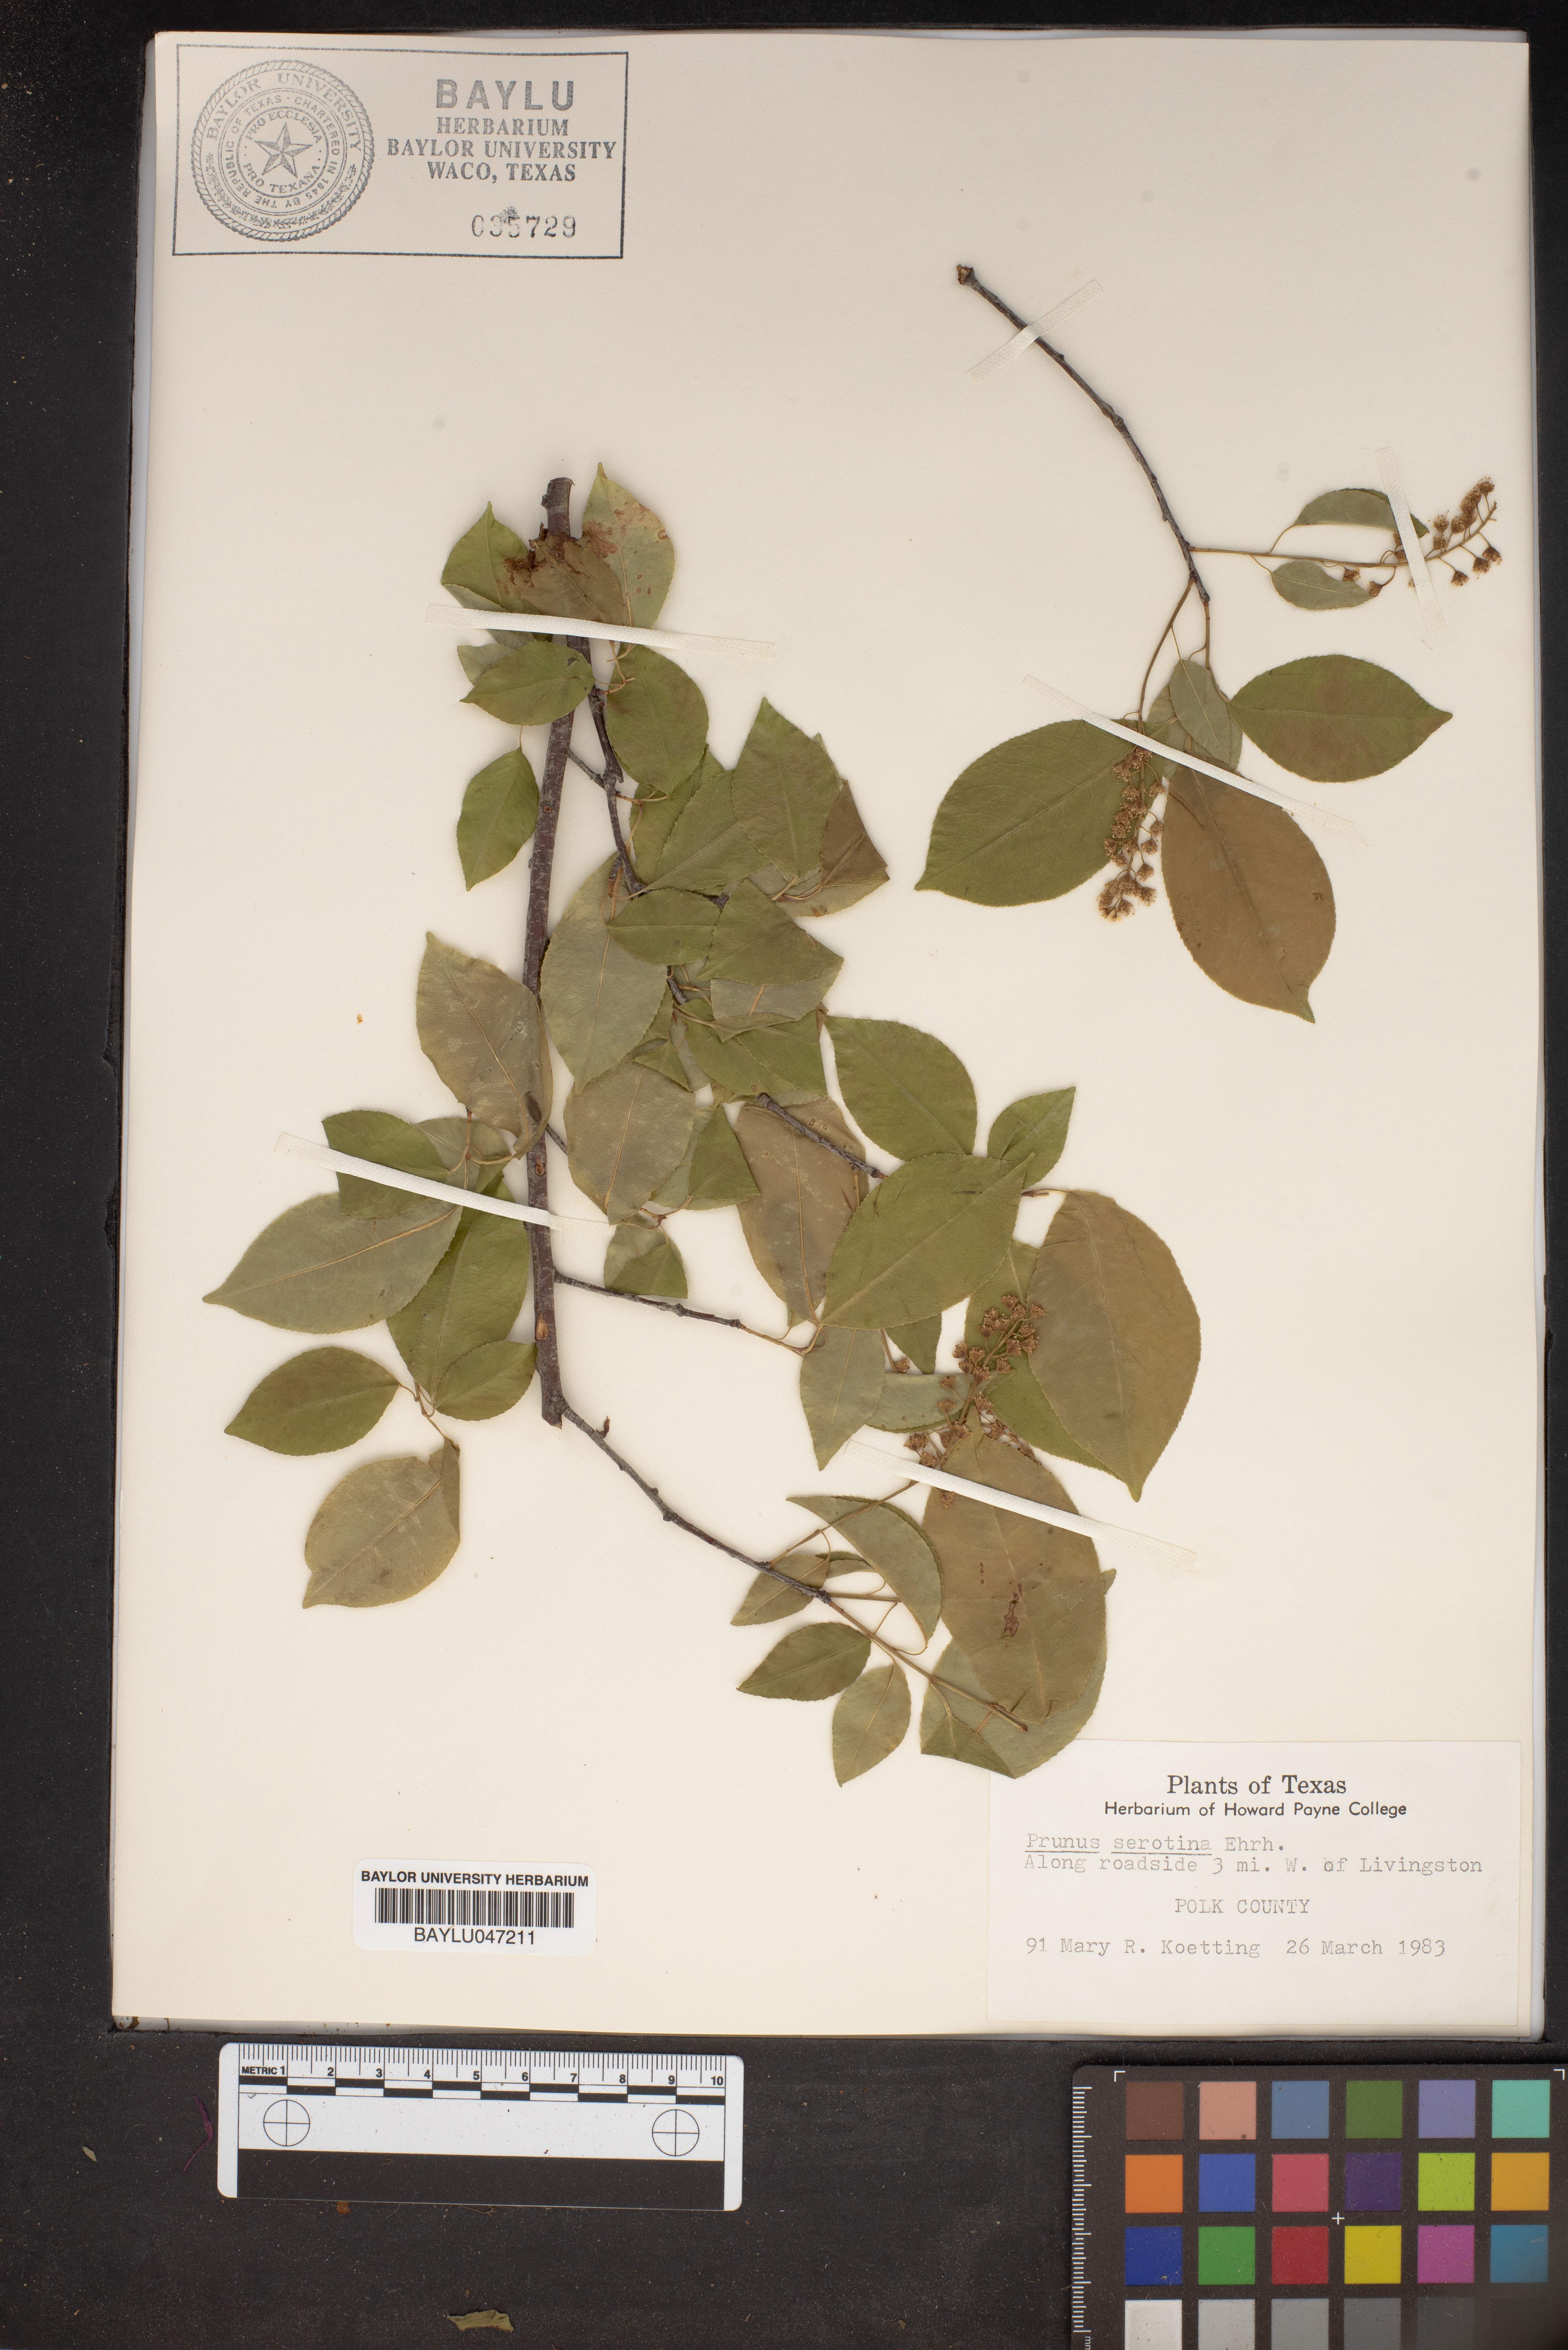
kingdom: Plantae
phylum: Tracheophyta
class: Magnoliopsida
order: Rosales
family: Rosaceae
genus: Prunus
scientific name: Prunus serotina
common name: Black cherry
